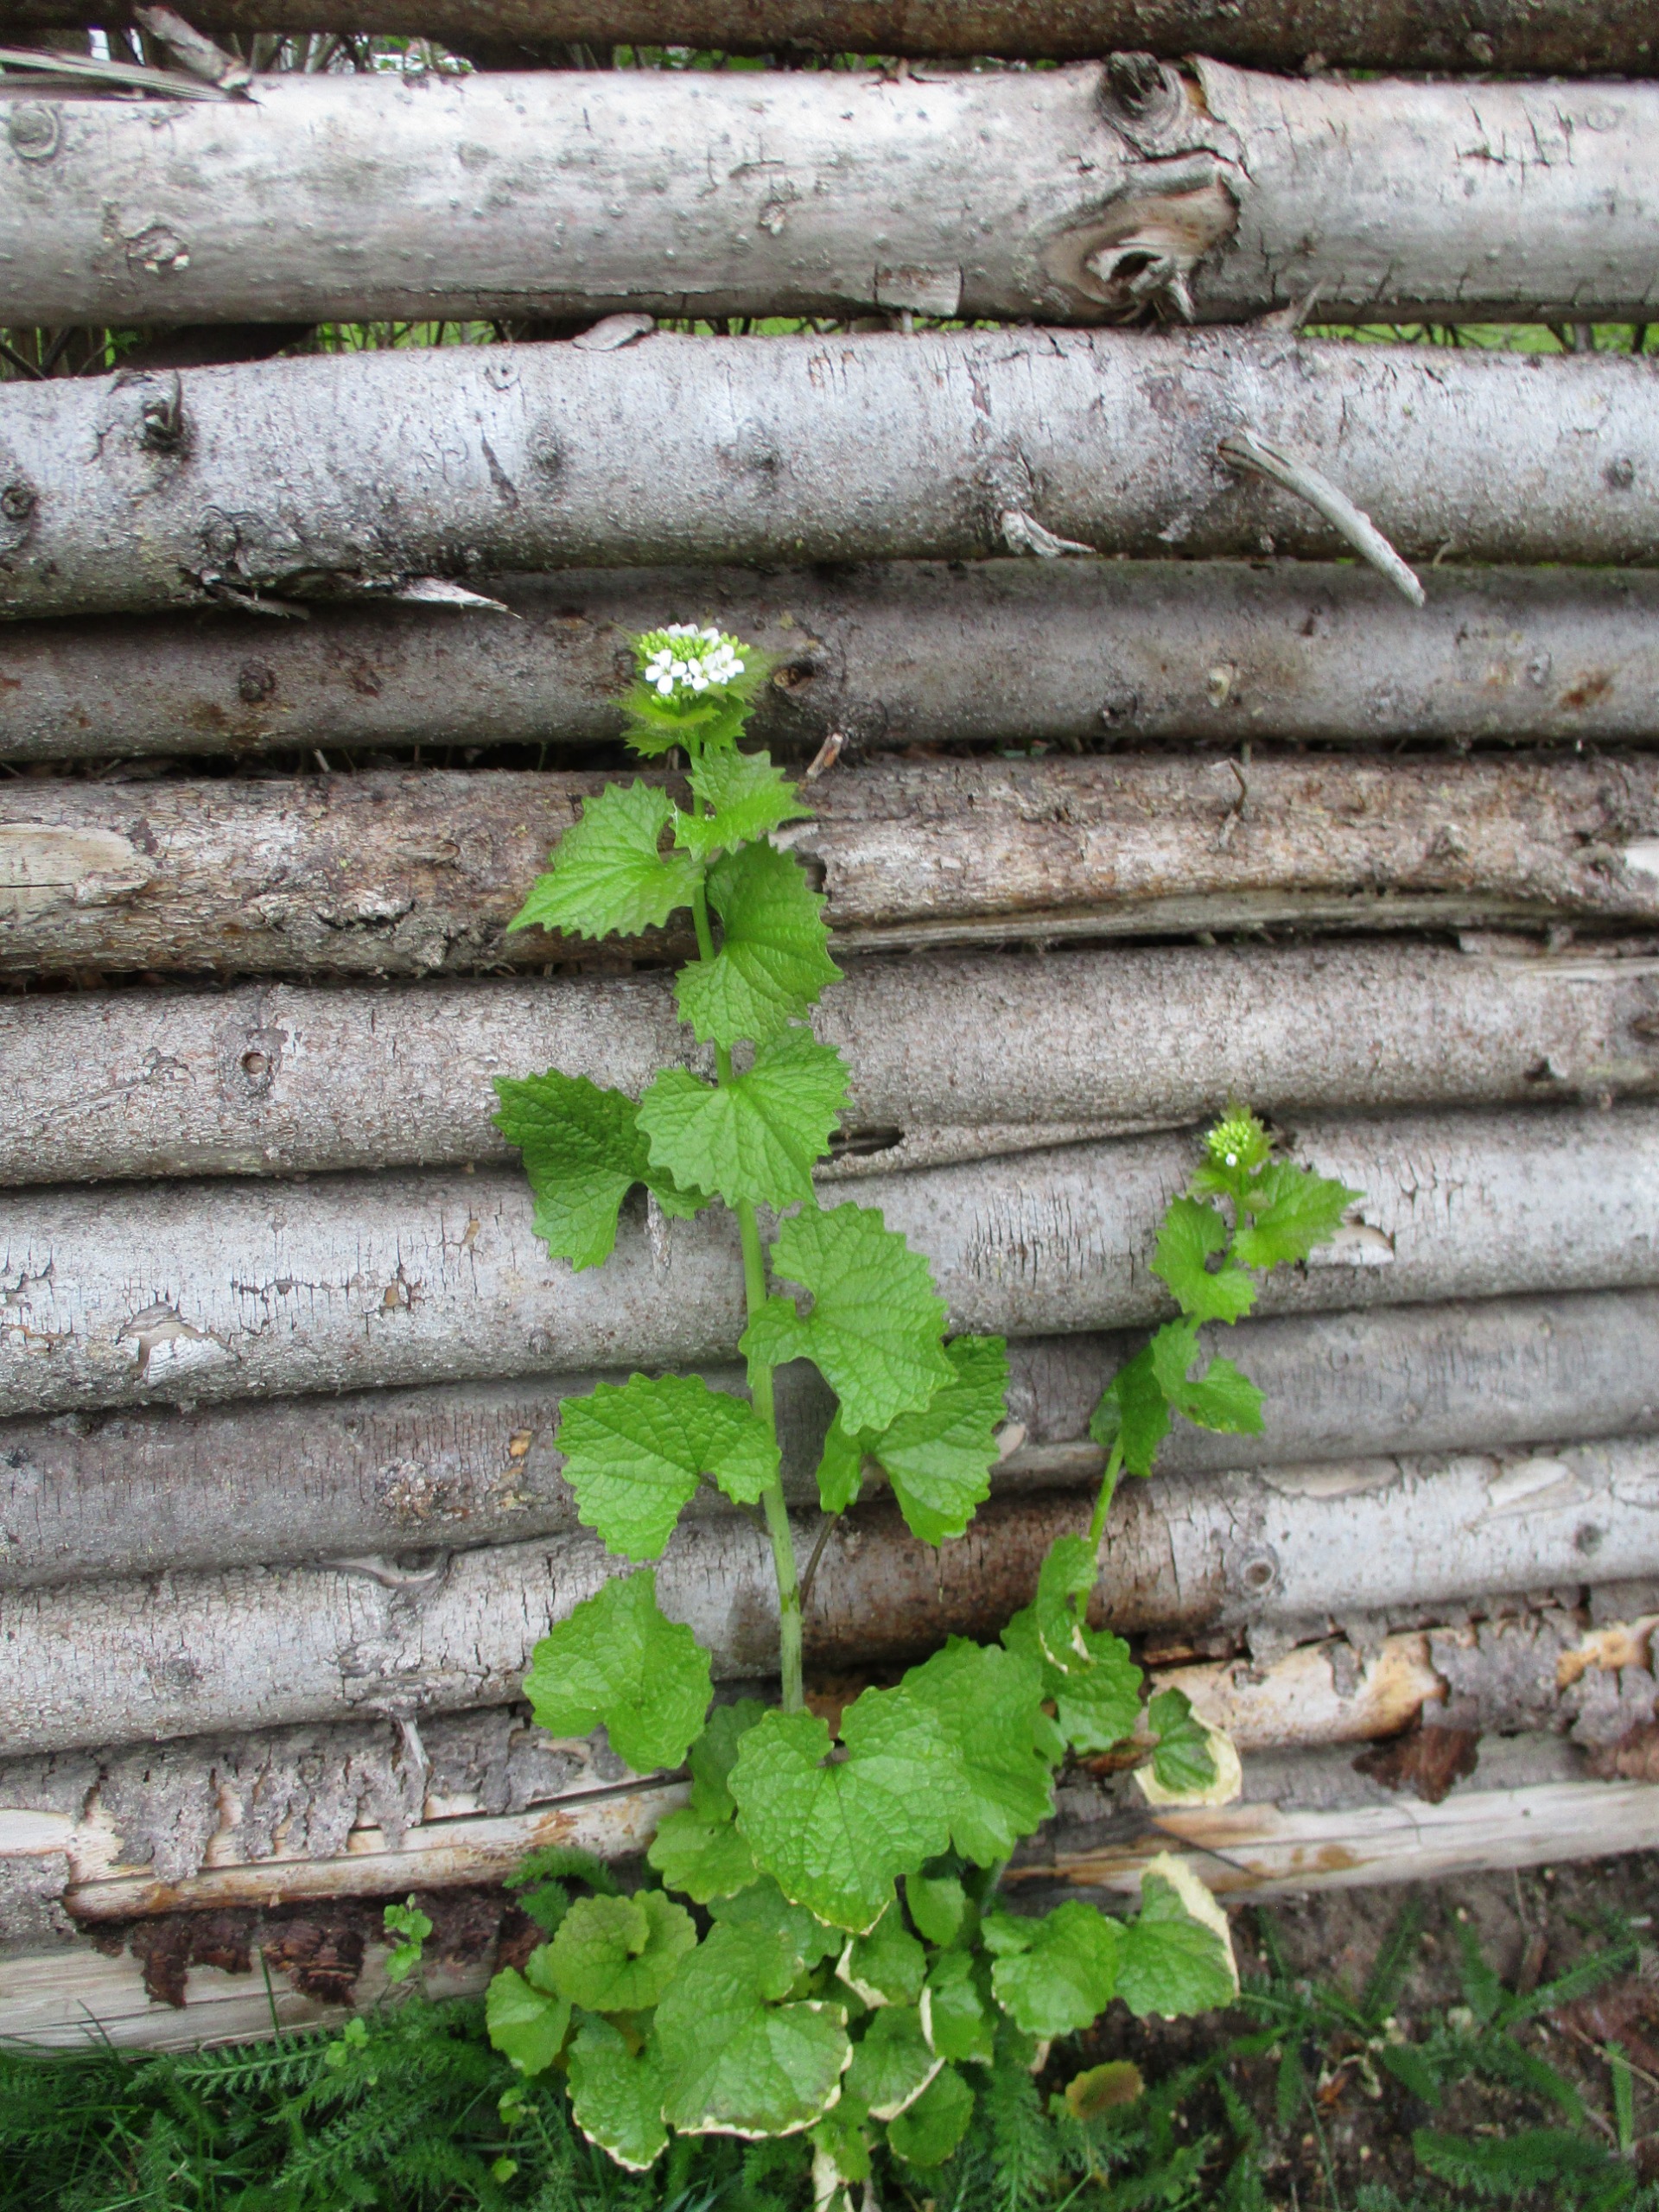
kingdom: Plantae
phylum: Tracheophyta
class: Magnoliopsida
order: Brassicales
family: Brassicaceae
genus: Alliaria
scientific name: Alliaria petiolata
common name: Løgkarse
